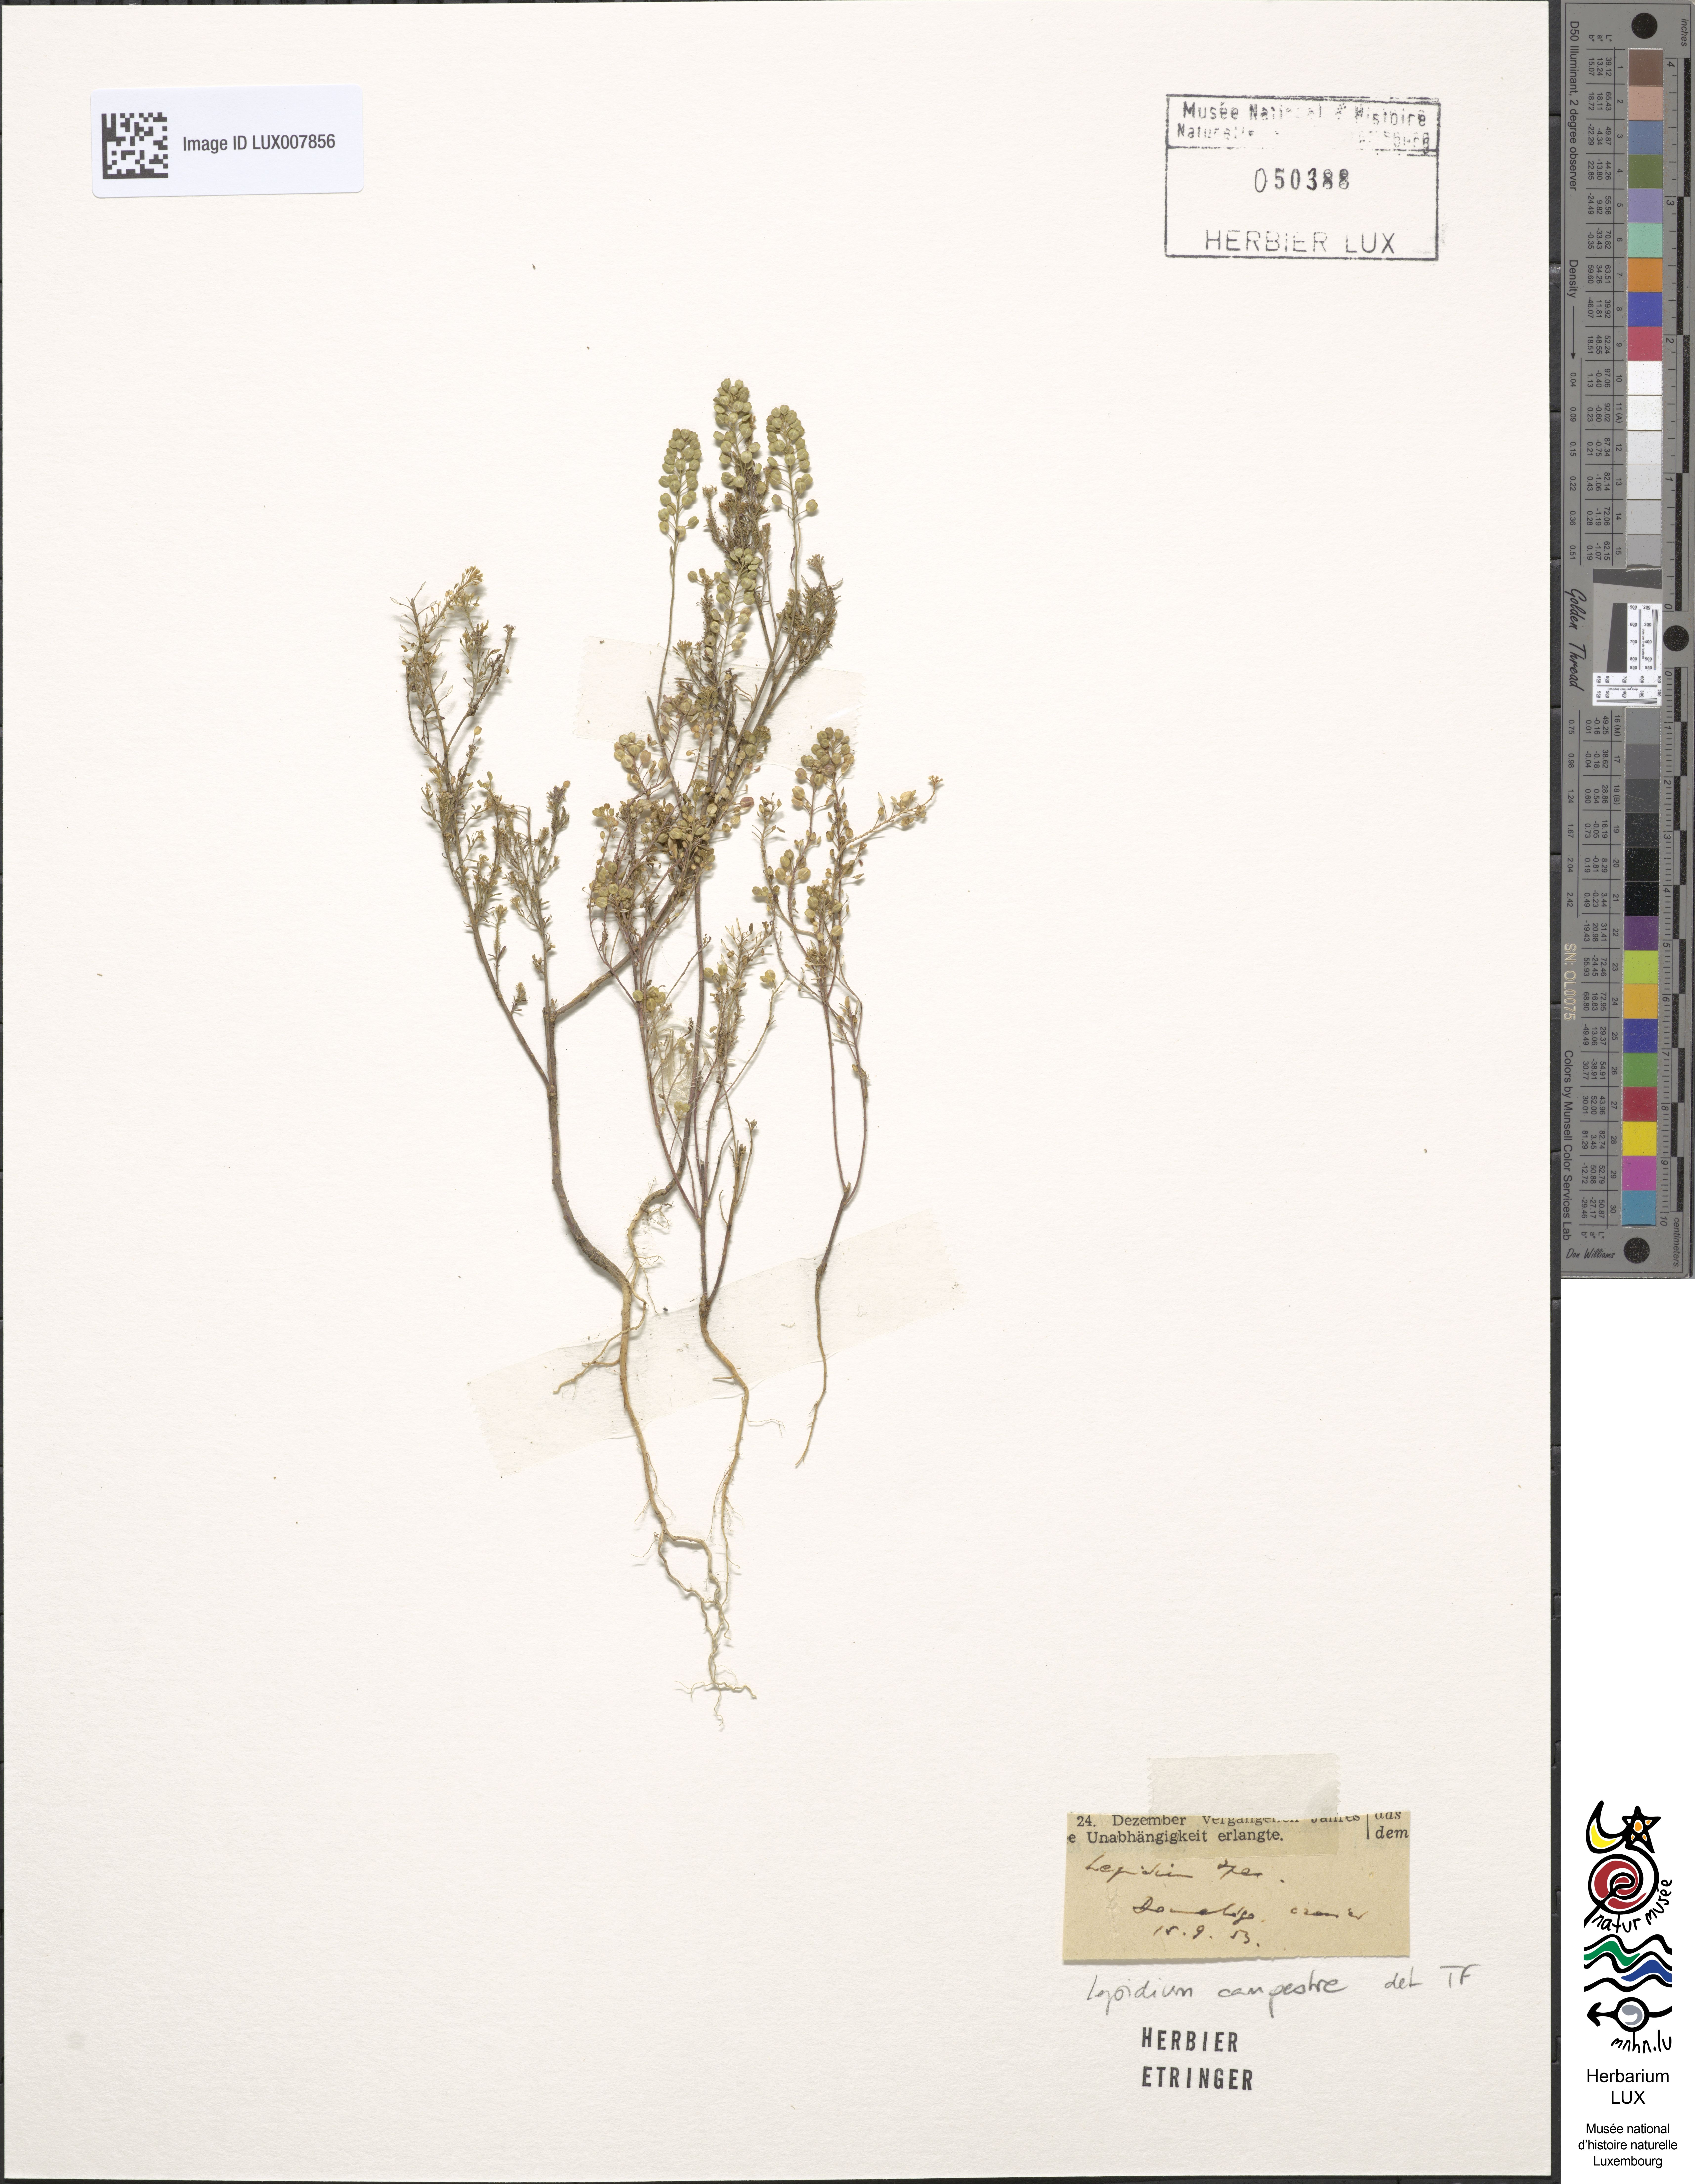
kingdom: Plantae
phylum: Tracheophyta
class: Magnoliopsida
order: Brassicales
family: Brassicaceae
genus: Lepidium
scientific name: Lepidium campestre
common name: Field pepperwort
